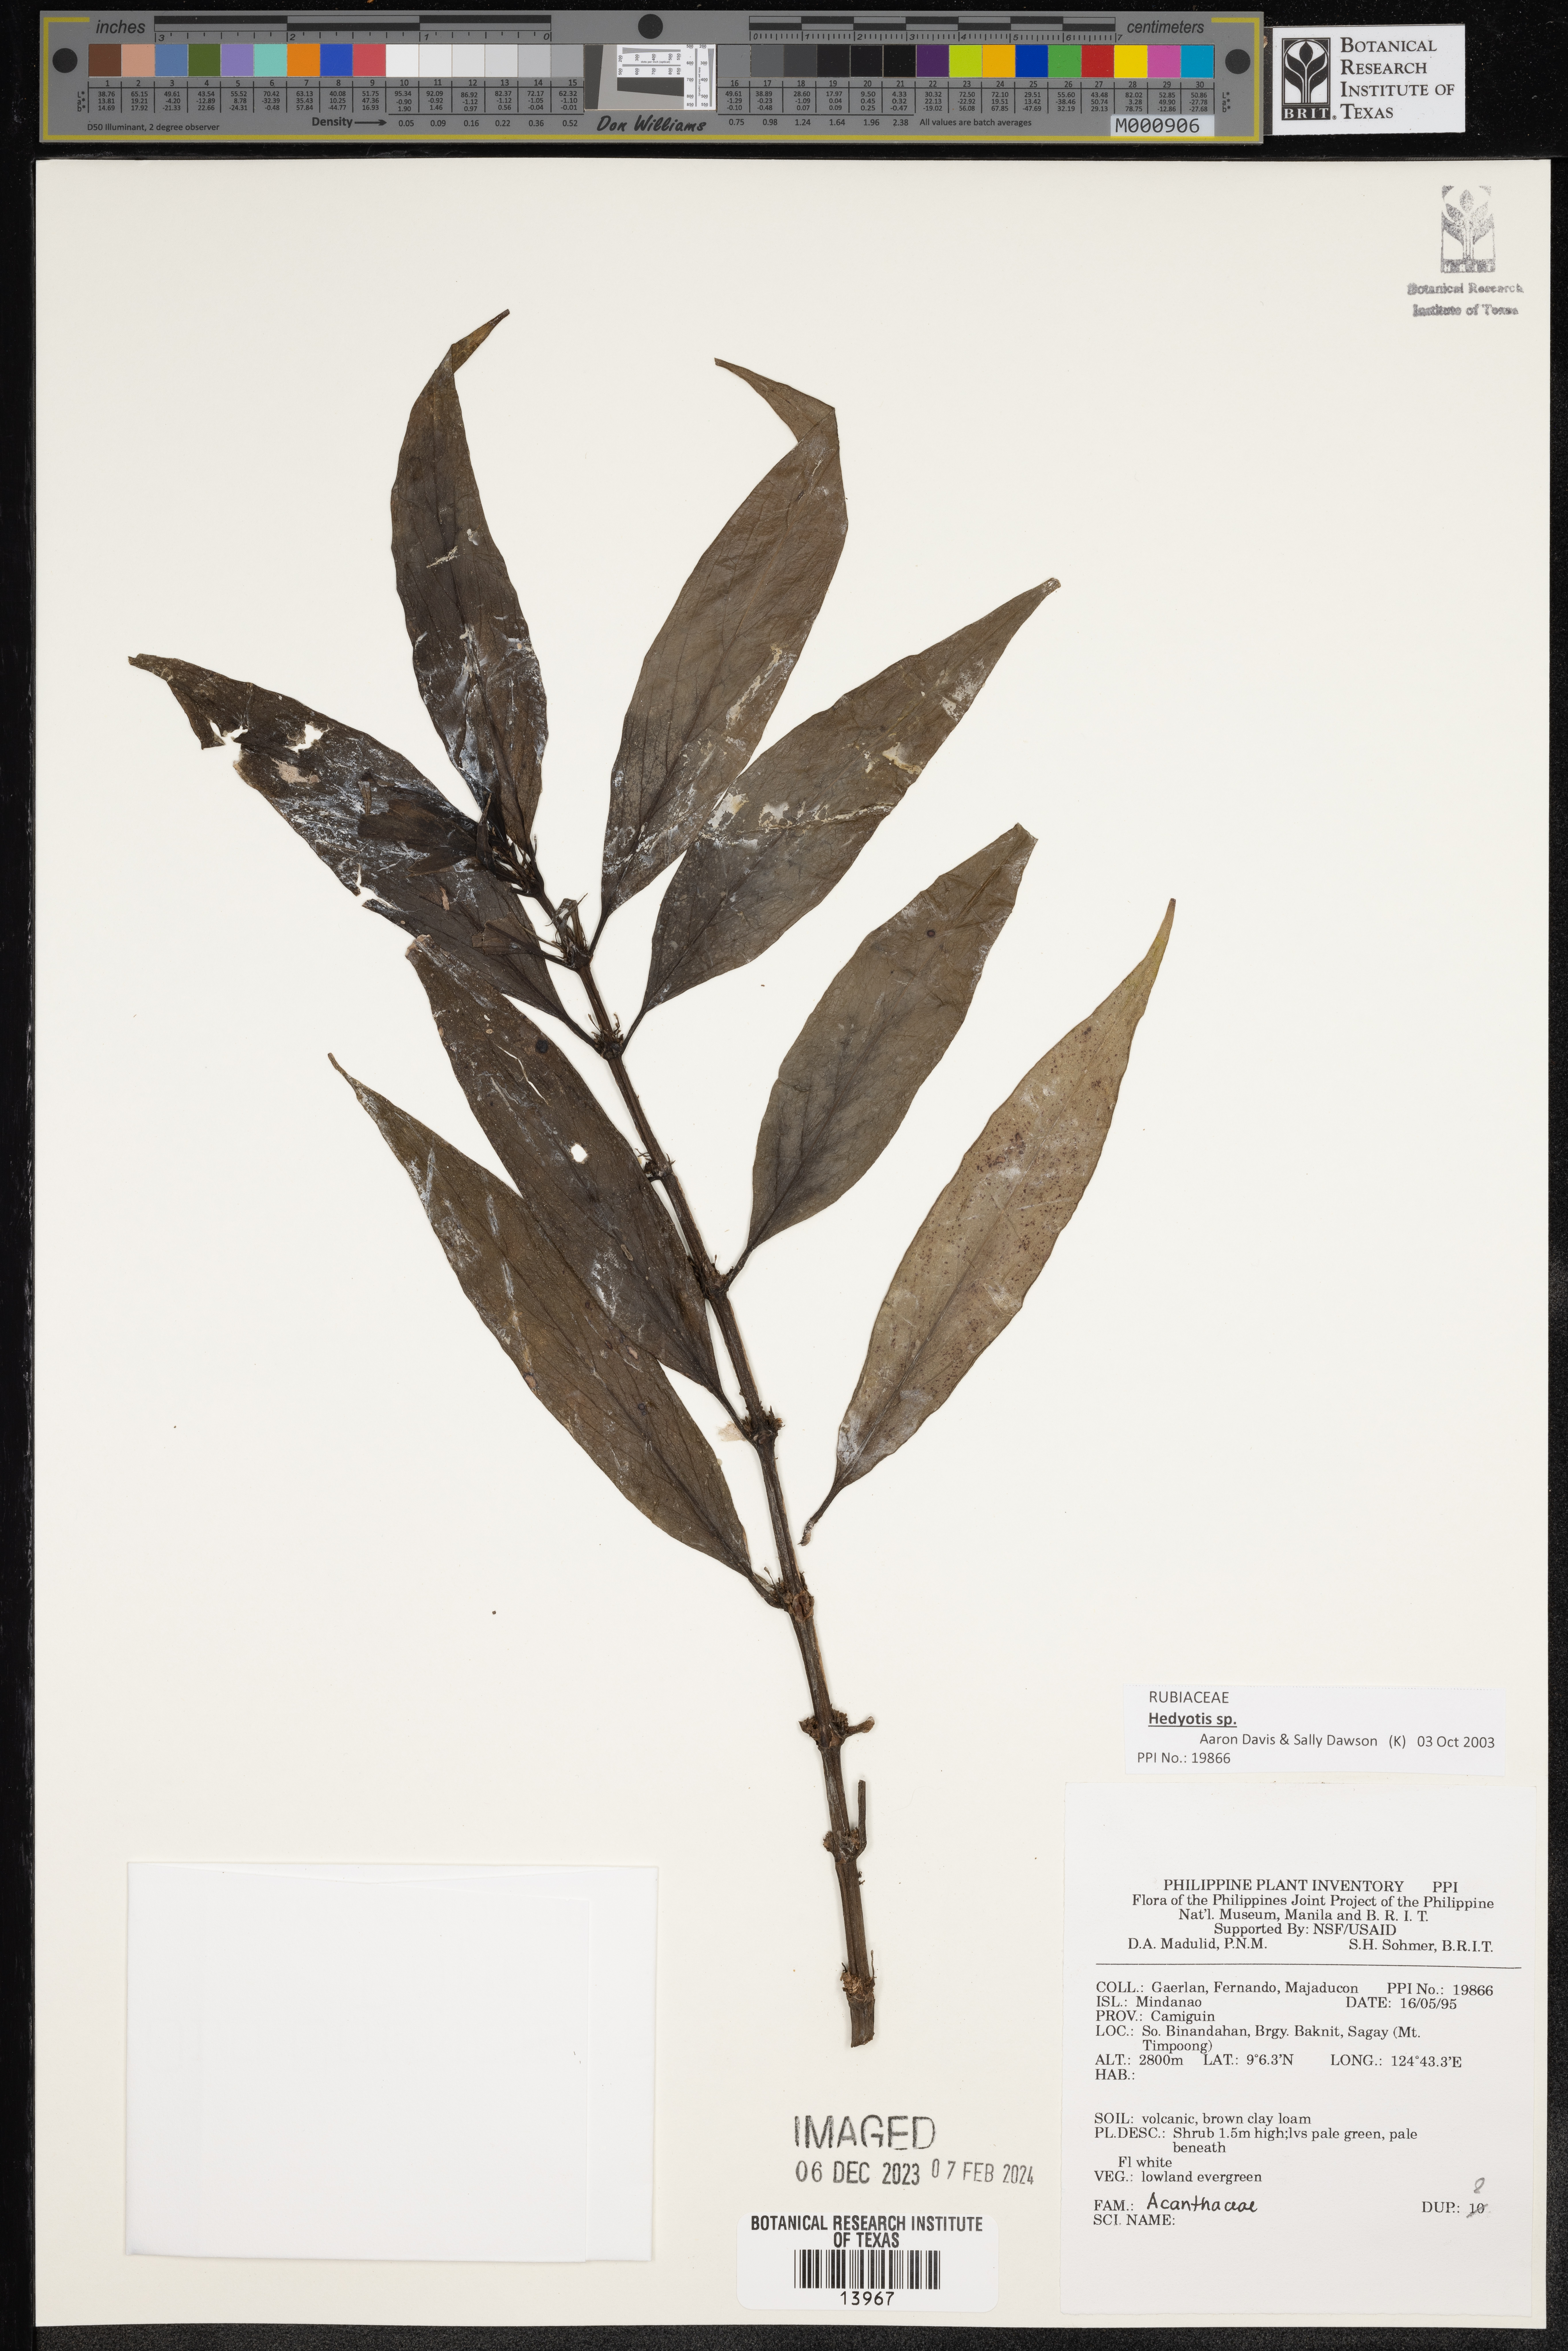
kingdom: Plantae
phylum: Tracheophyta
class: Magnoliopsida
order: Gentianales
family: Rubiaceae
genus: Hedyotis
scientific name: Hedyotis
